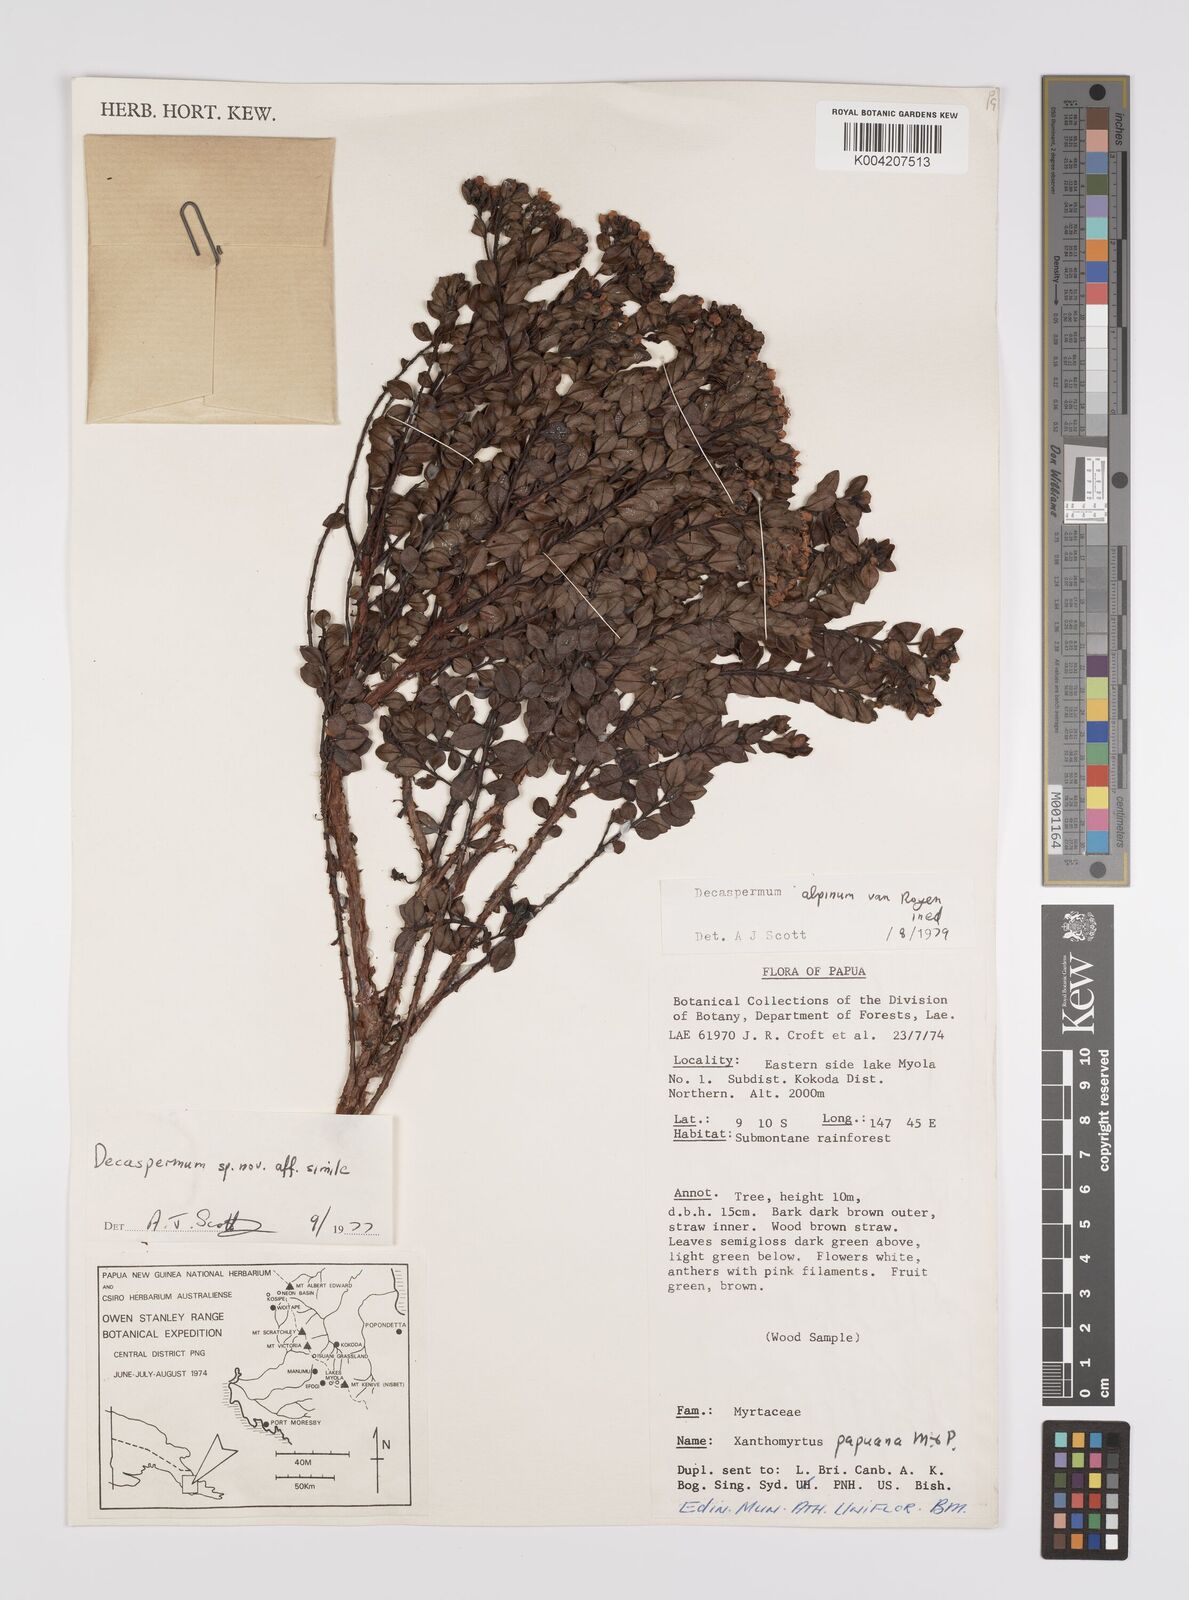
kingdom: Plantae
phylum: Tracheophyta
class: Magnoliopsida
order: Myrtales
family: Myrtaceae
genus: Decaspermum
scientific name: Decaspermum alpinum
